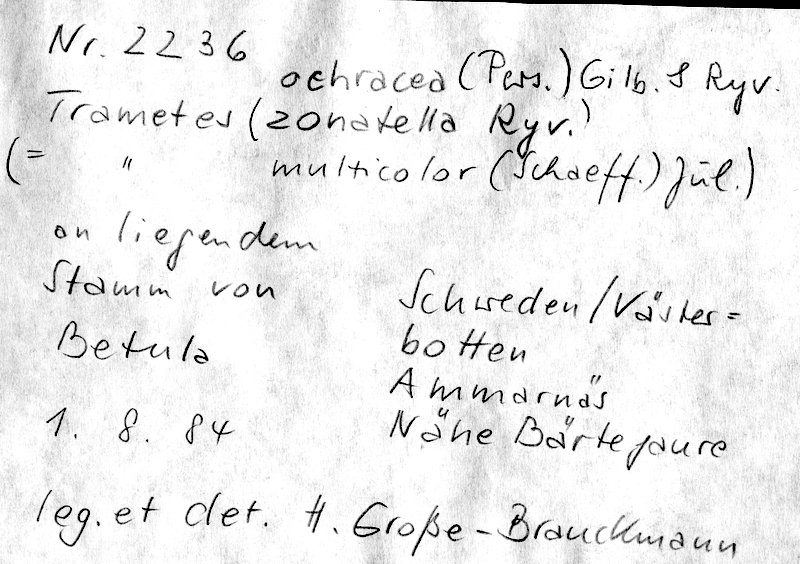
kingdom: Fungi
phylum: Basidiomycota
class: Agaricomycetes
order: Polyporales
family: Polyporaceae
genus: Trametes
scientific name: Trametes ochracea
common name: Ochre bracket
